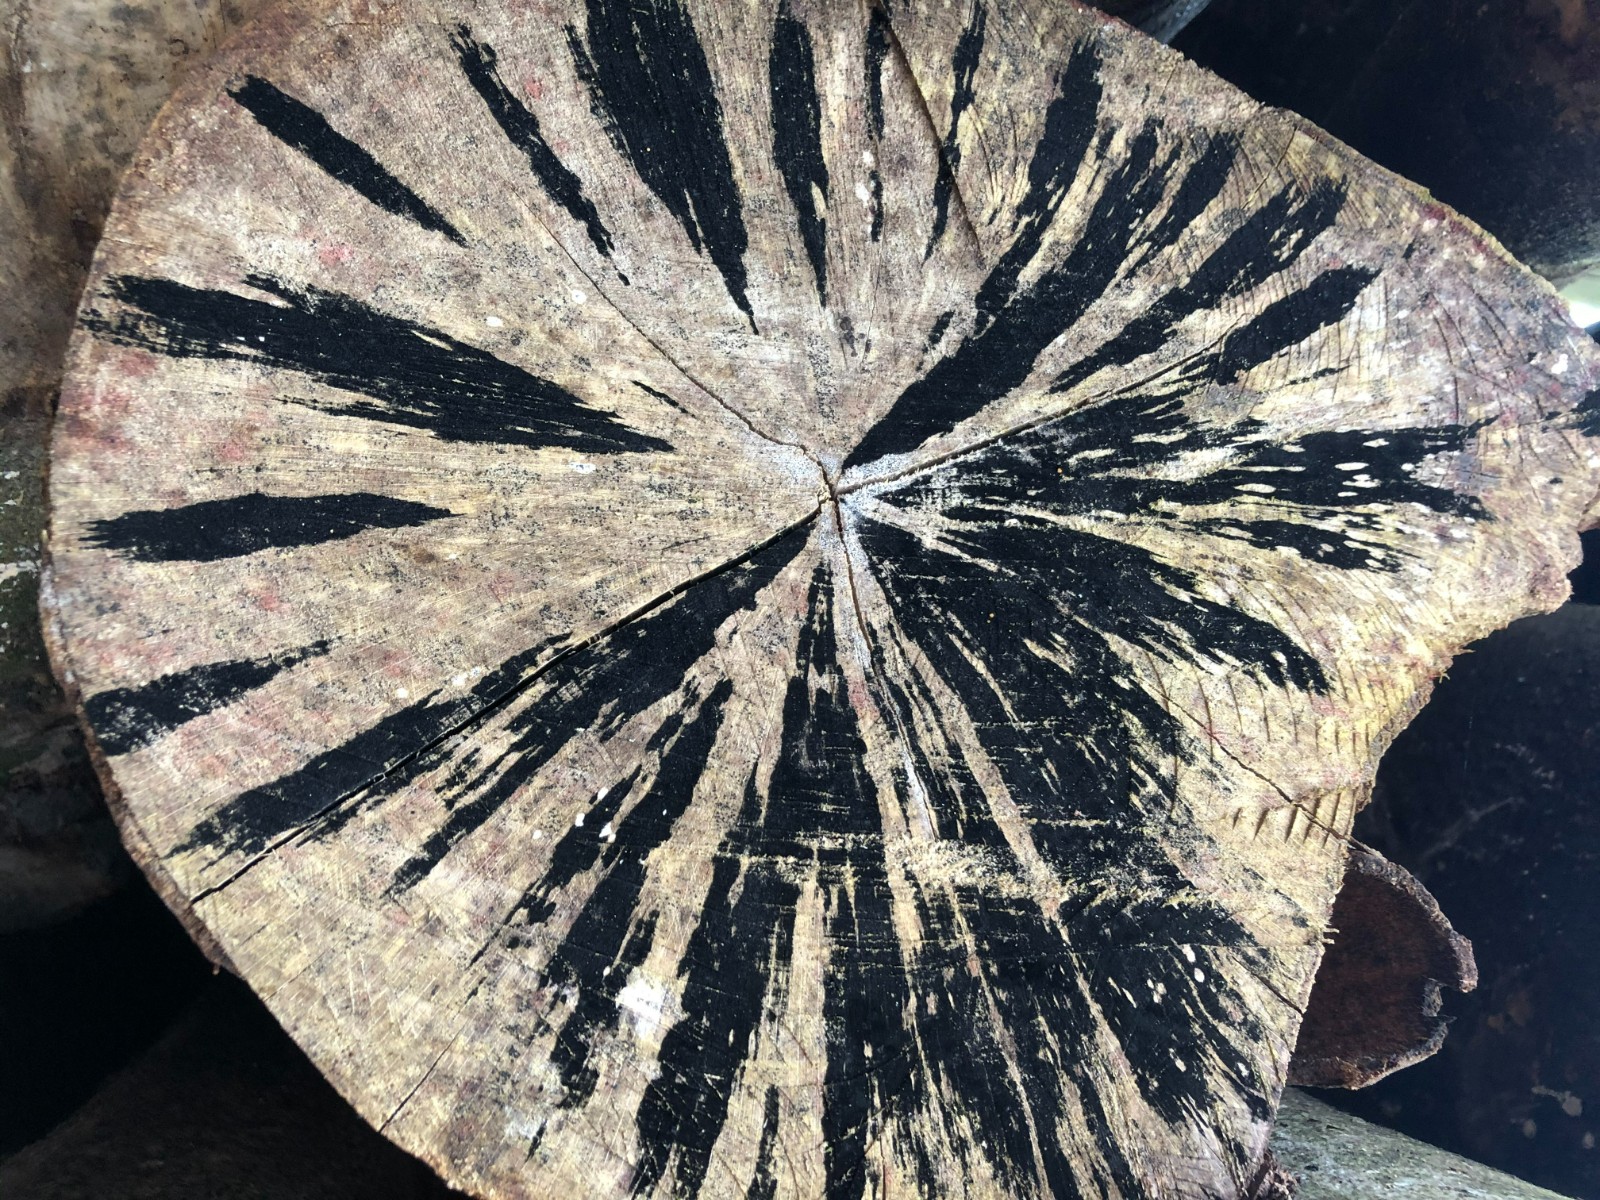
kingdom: Fungi
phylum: Ascomycota
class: Leotiomycetes
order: Helotiales
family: Helotiaceae
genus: Bispora
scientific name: Bispora pallescens
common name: måtte-snitskive
